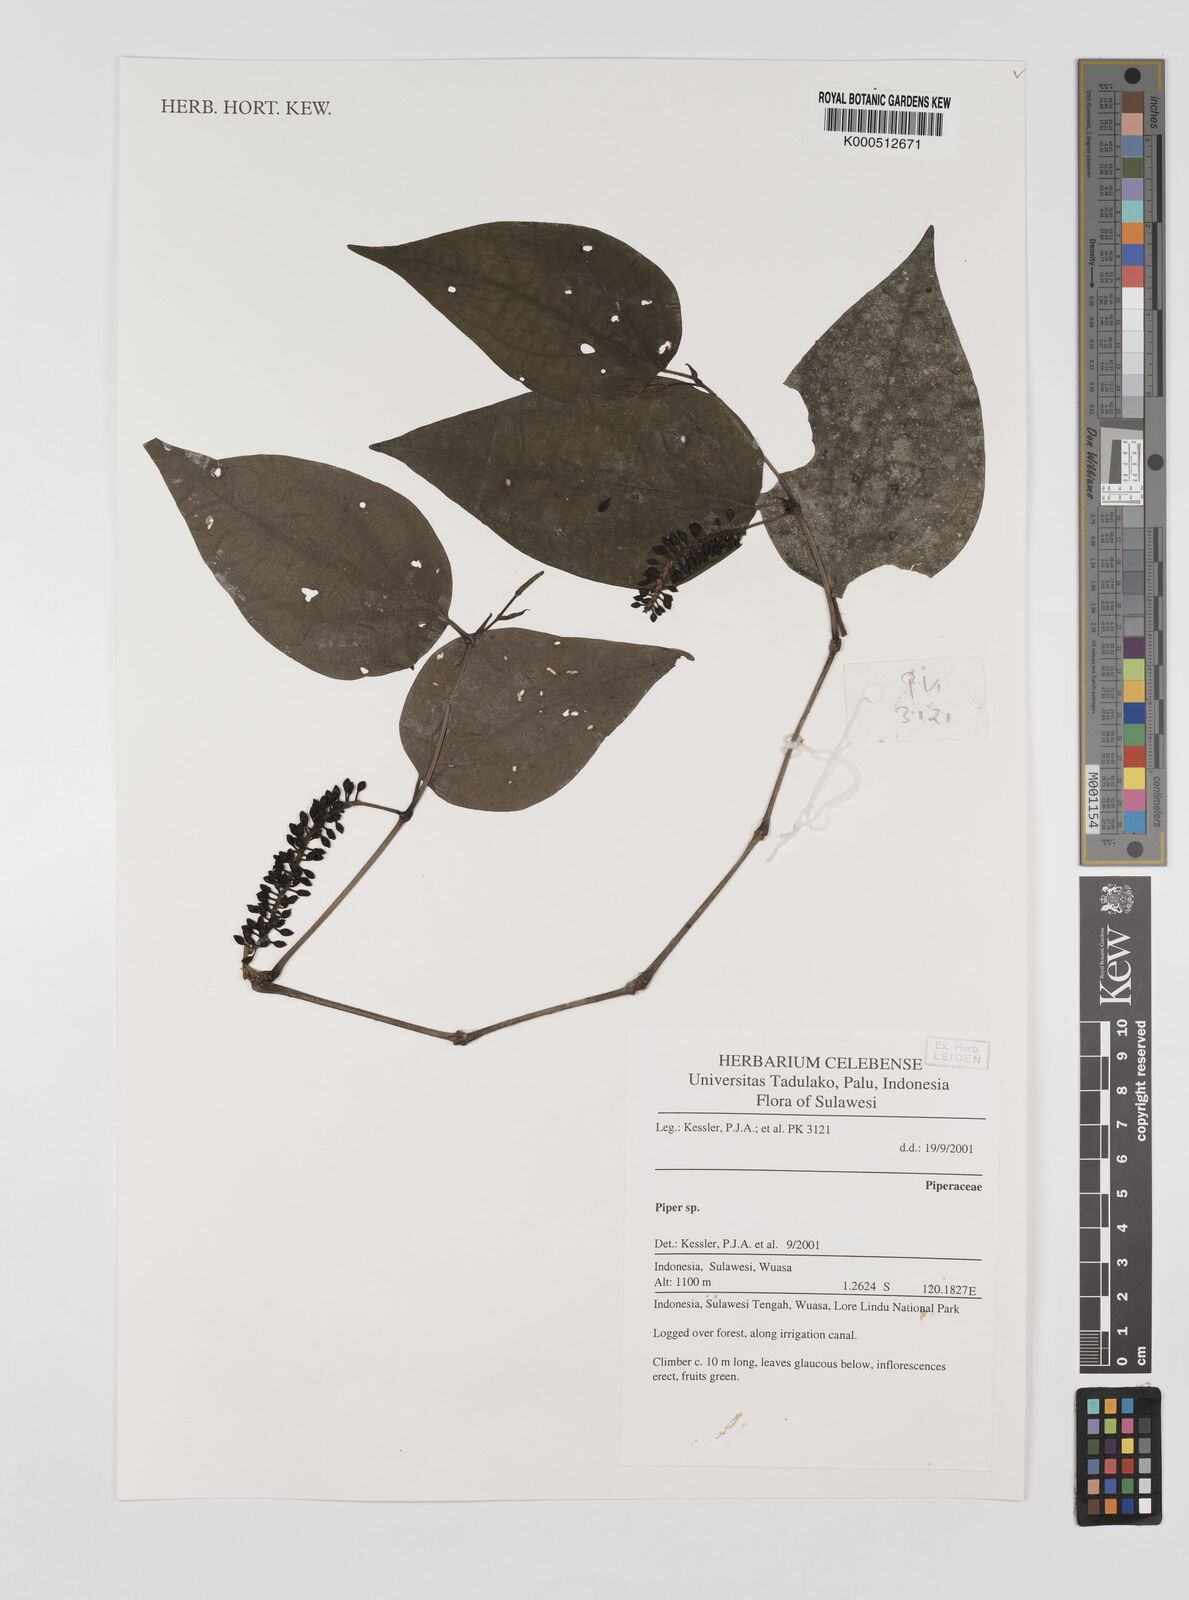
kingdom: Plantae
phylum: Tracheophyta
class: Magnoliopsida
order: Piperales
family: Piperaceae
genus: Piper
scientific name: Piper
